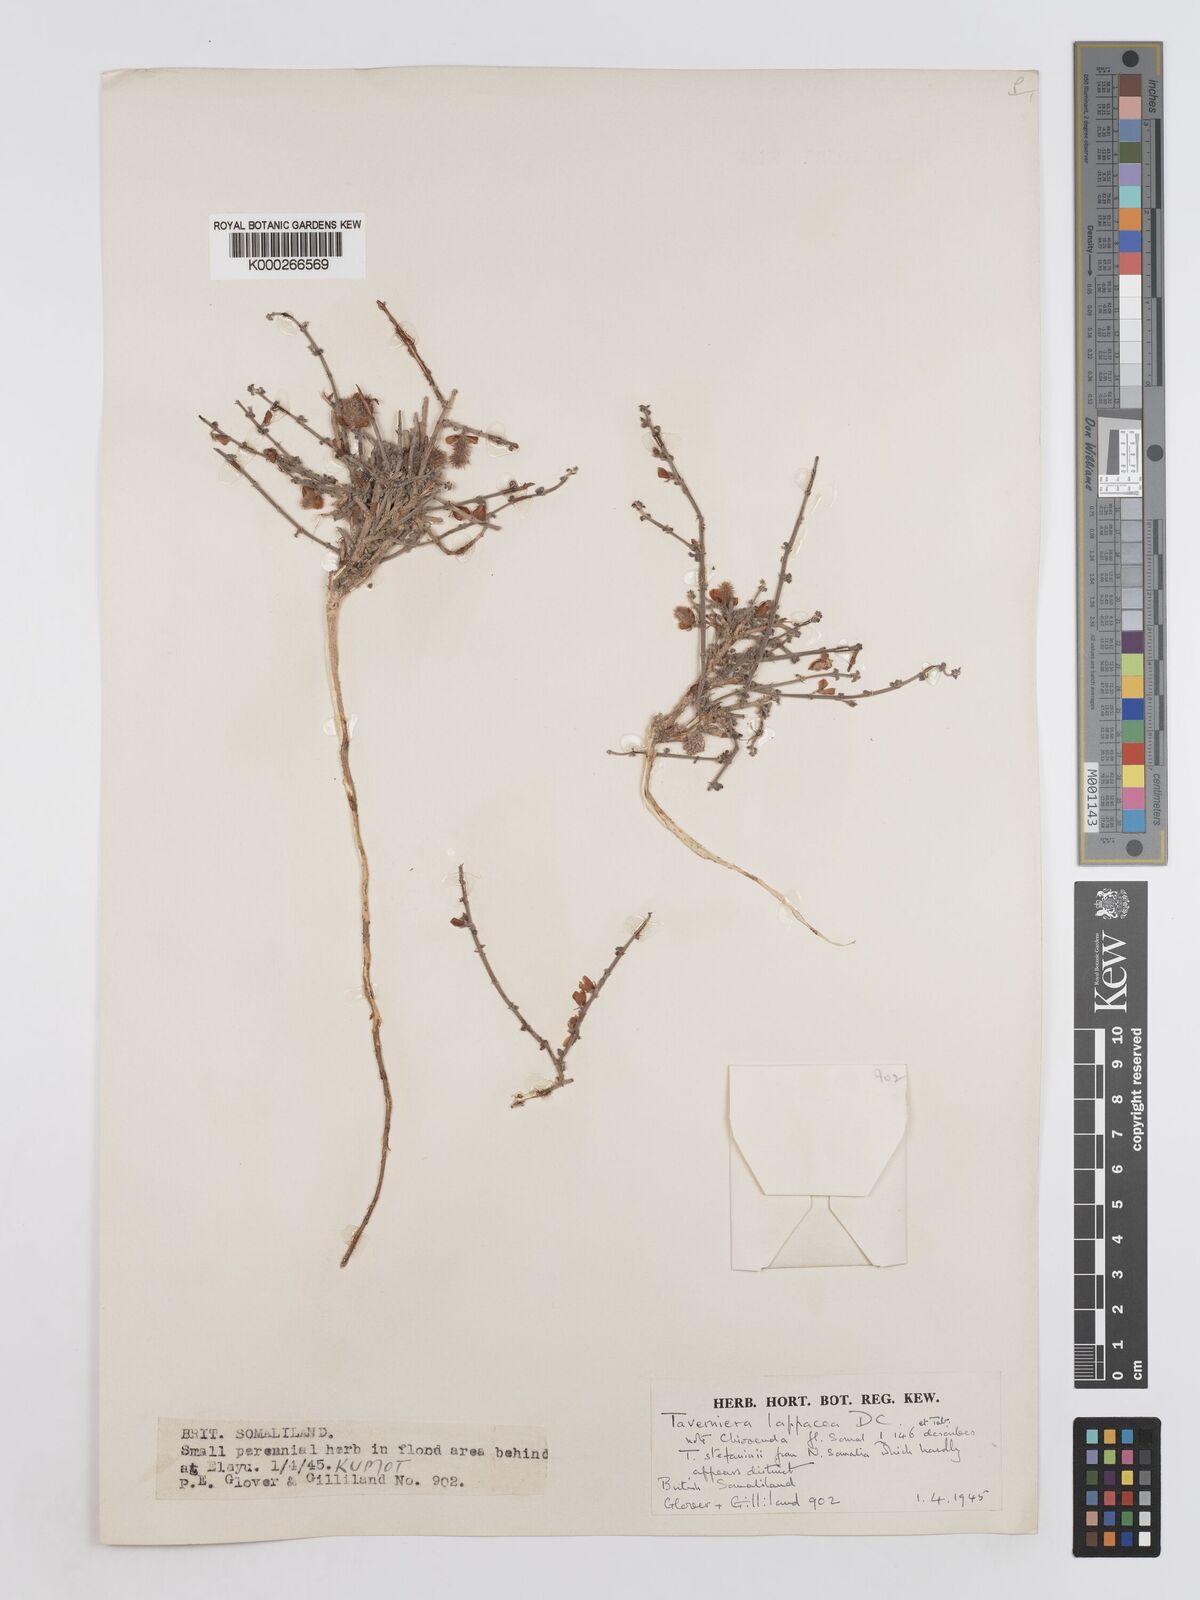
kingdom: Plantae
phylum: Tracheophyta
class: Magnoliopsida
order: Fabales
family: Fabaceae
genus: Taverniera
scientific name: Taverniera lappacea
